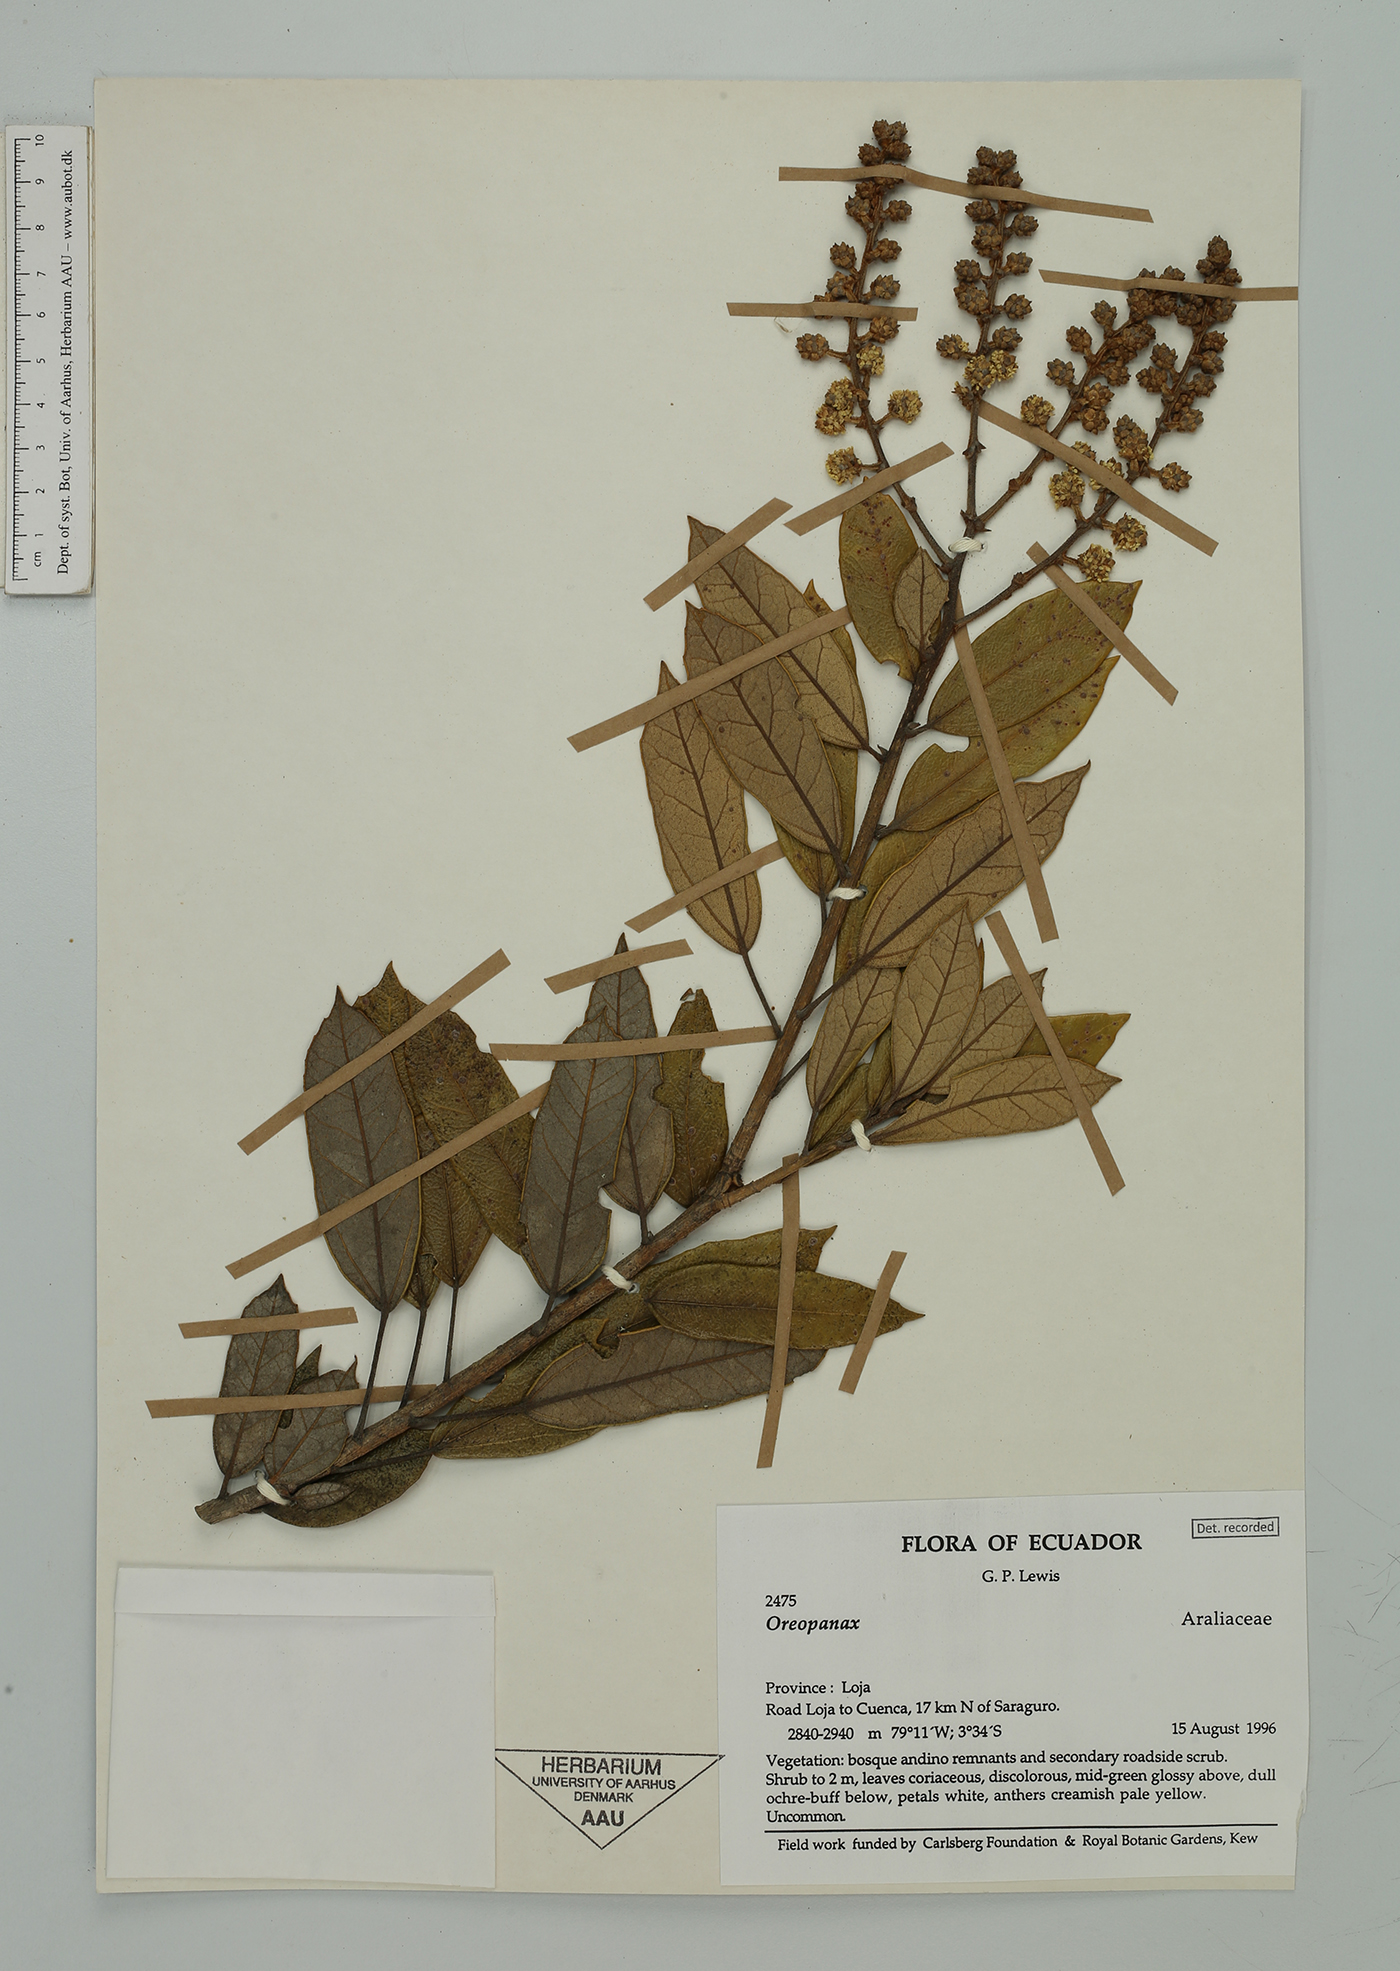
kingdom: Plantae
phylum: Tracheophyta
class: Magnoliopsida
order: Apiales
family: Araliaceae
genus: Oreopanax
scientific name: Oreopanax
